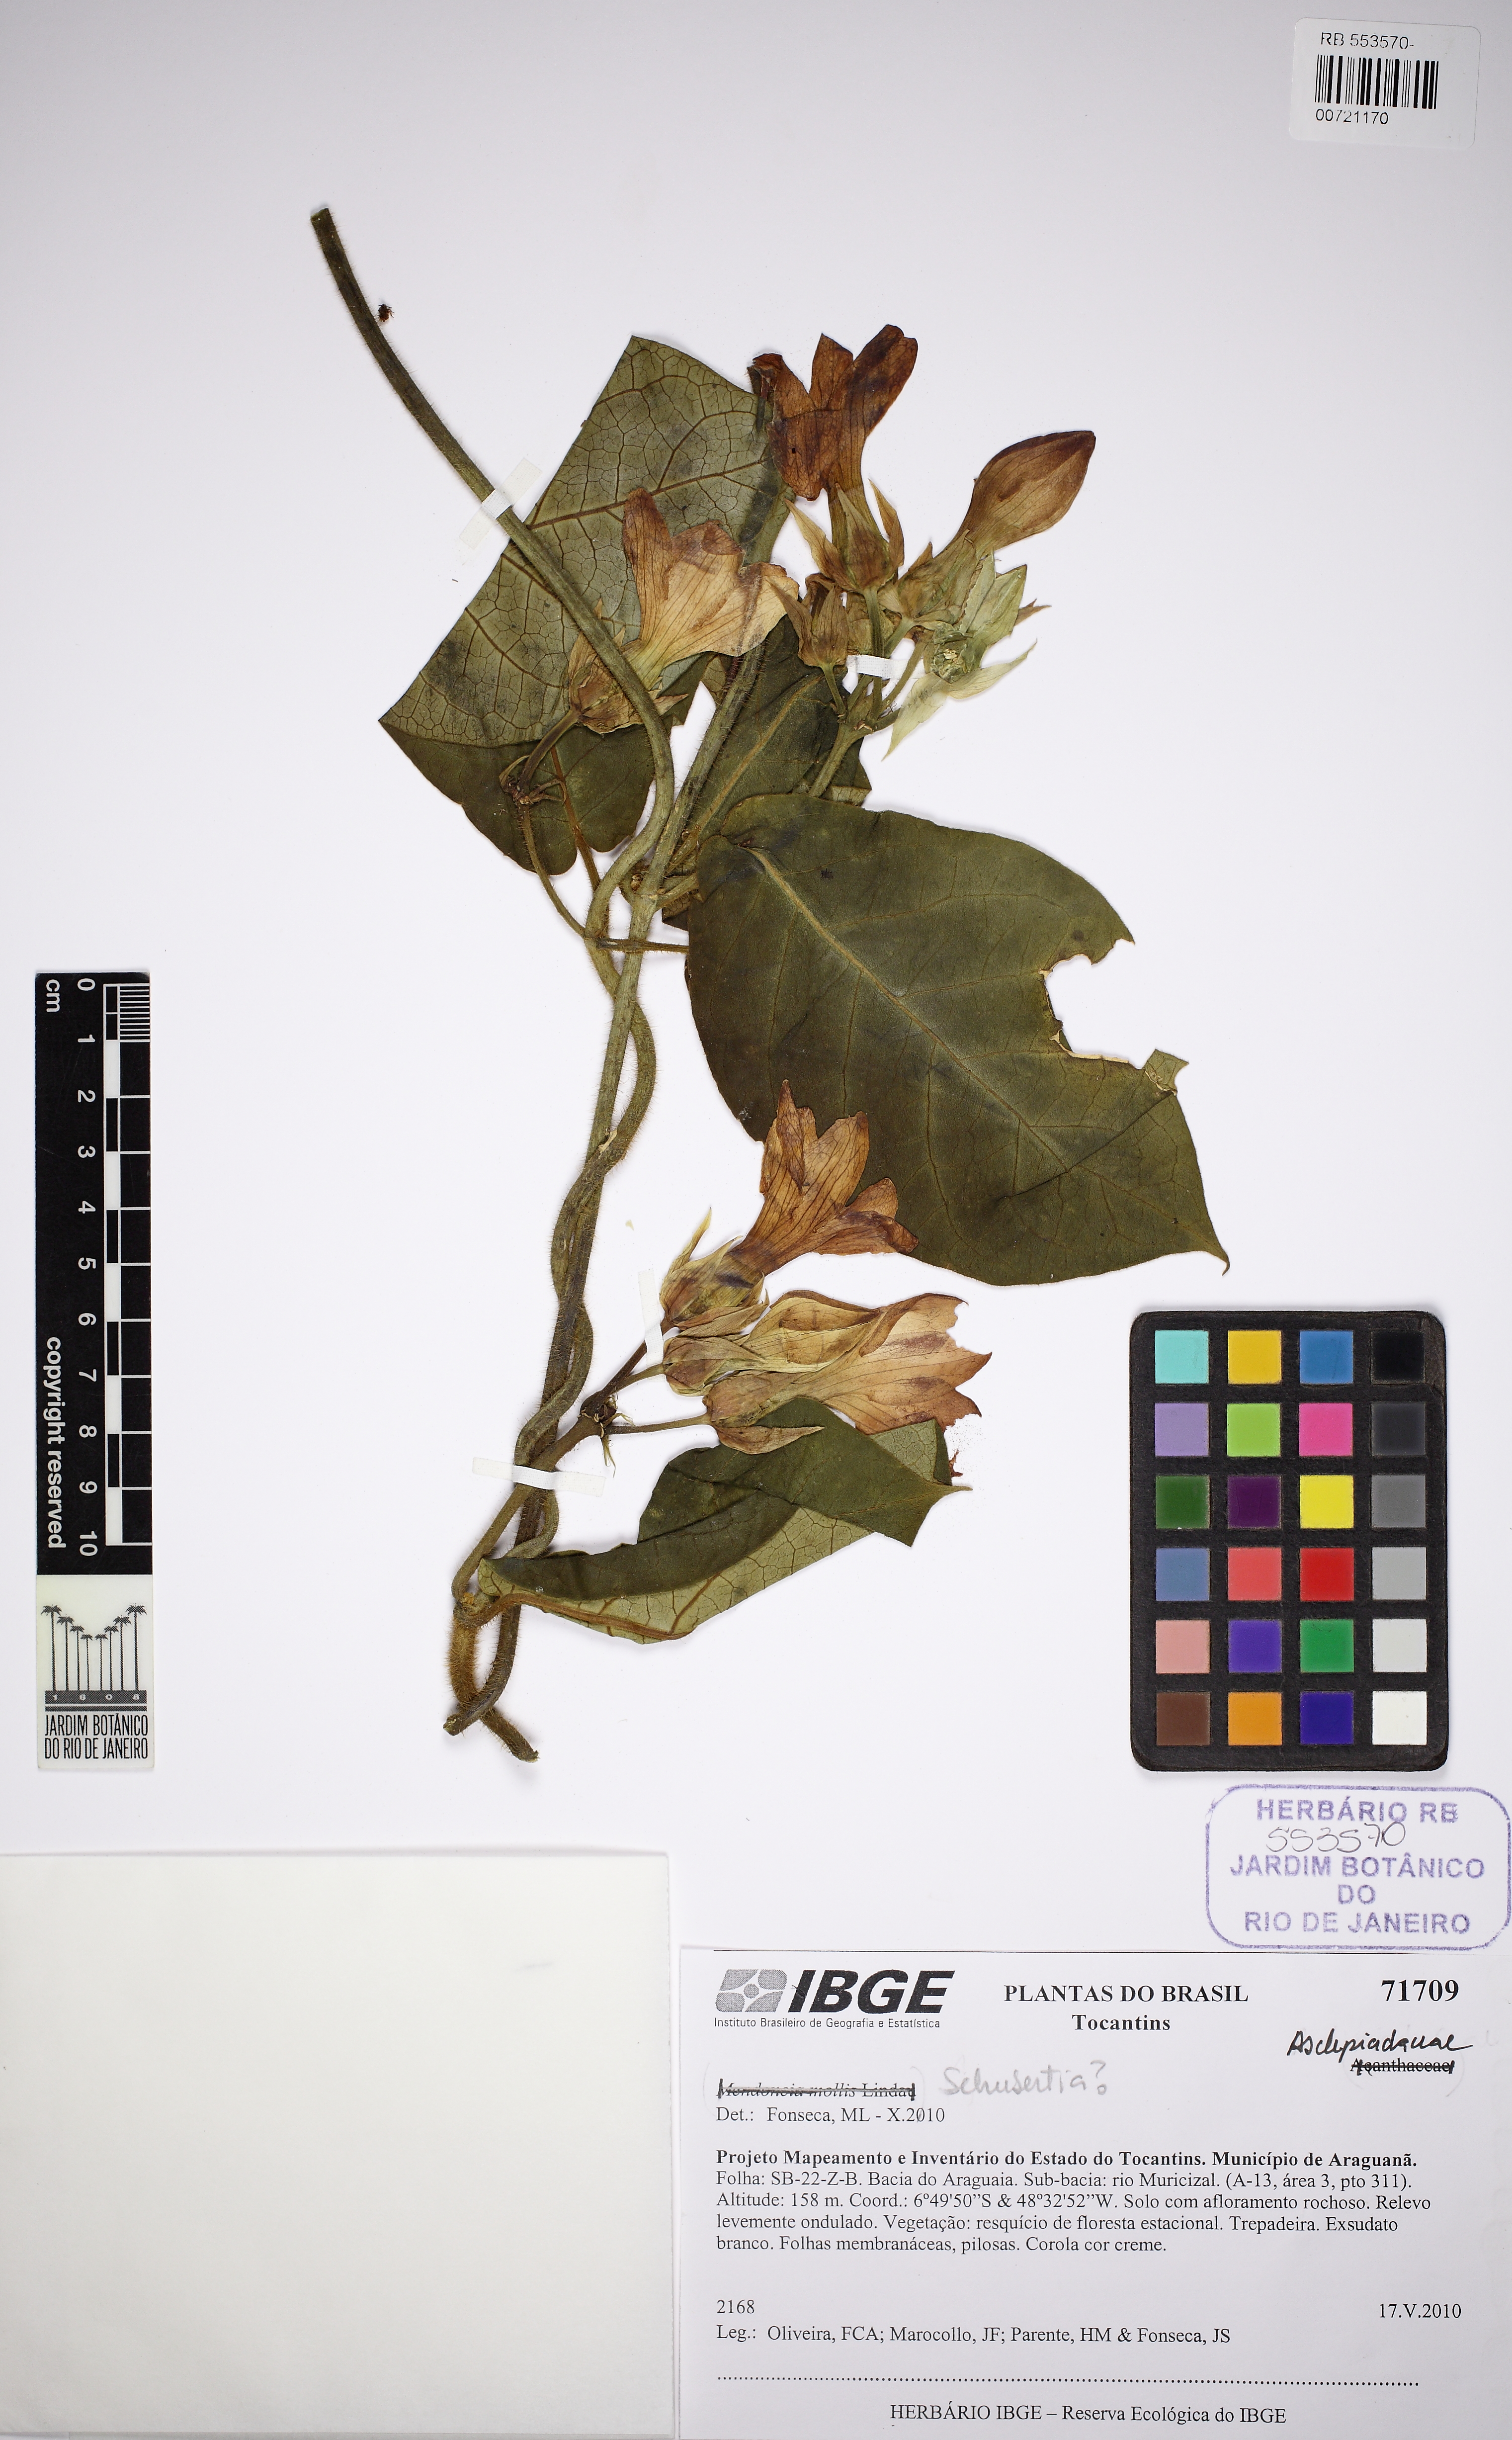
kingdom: Plantae
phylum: Tracheophyta
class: Magnoliopsida
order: Gentianales
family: Apocynaceae
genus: Macroscepis
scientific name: Macroscepis grandiflora
